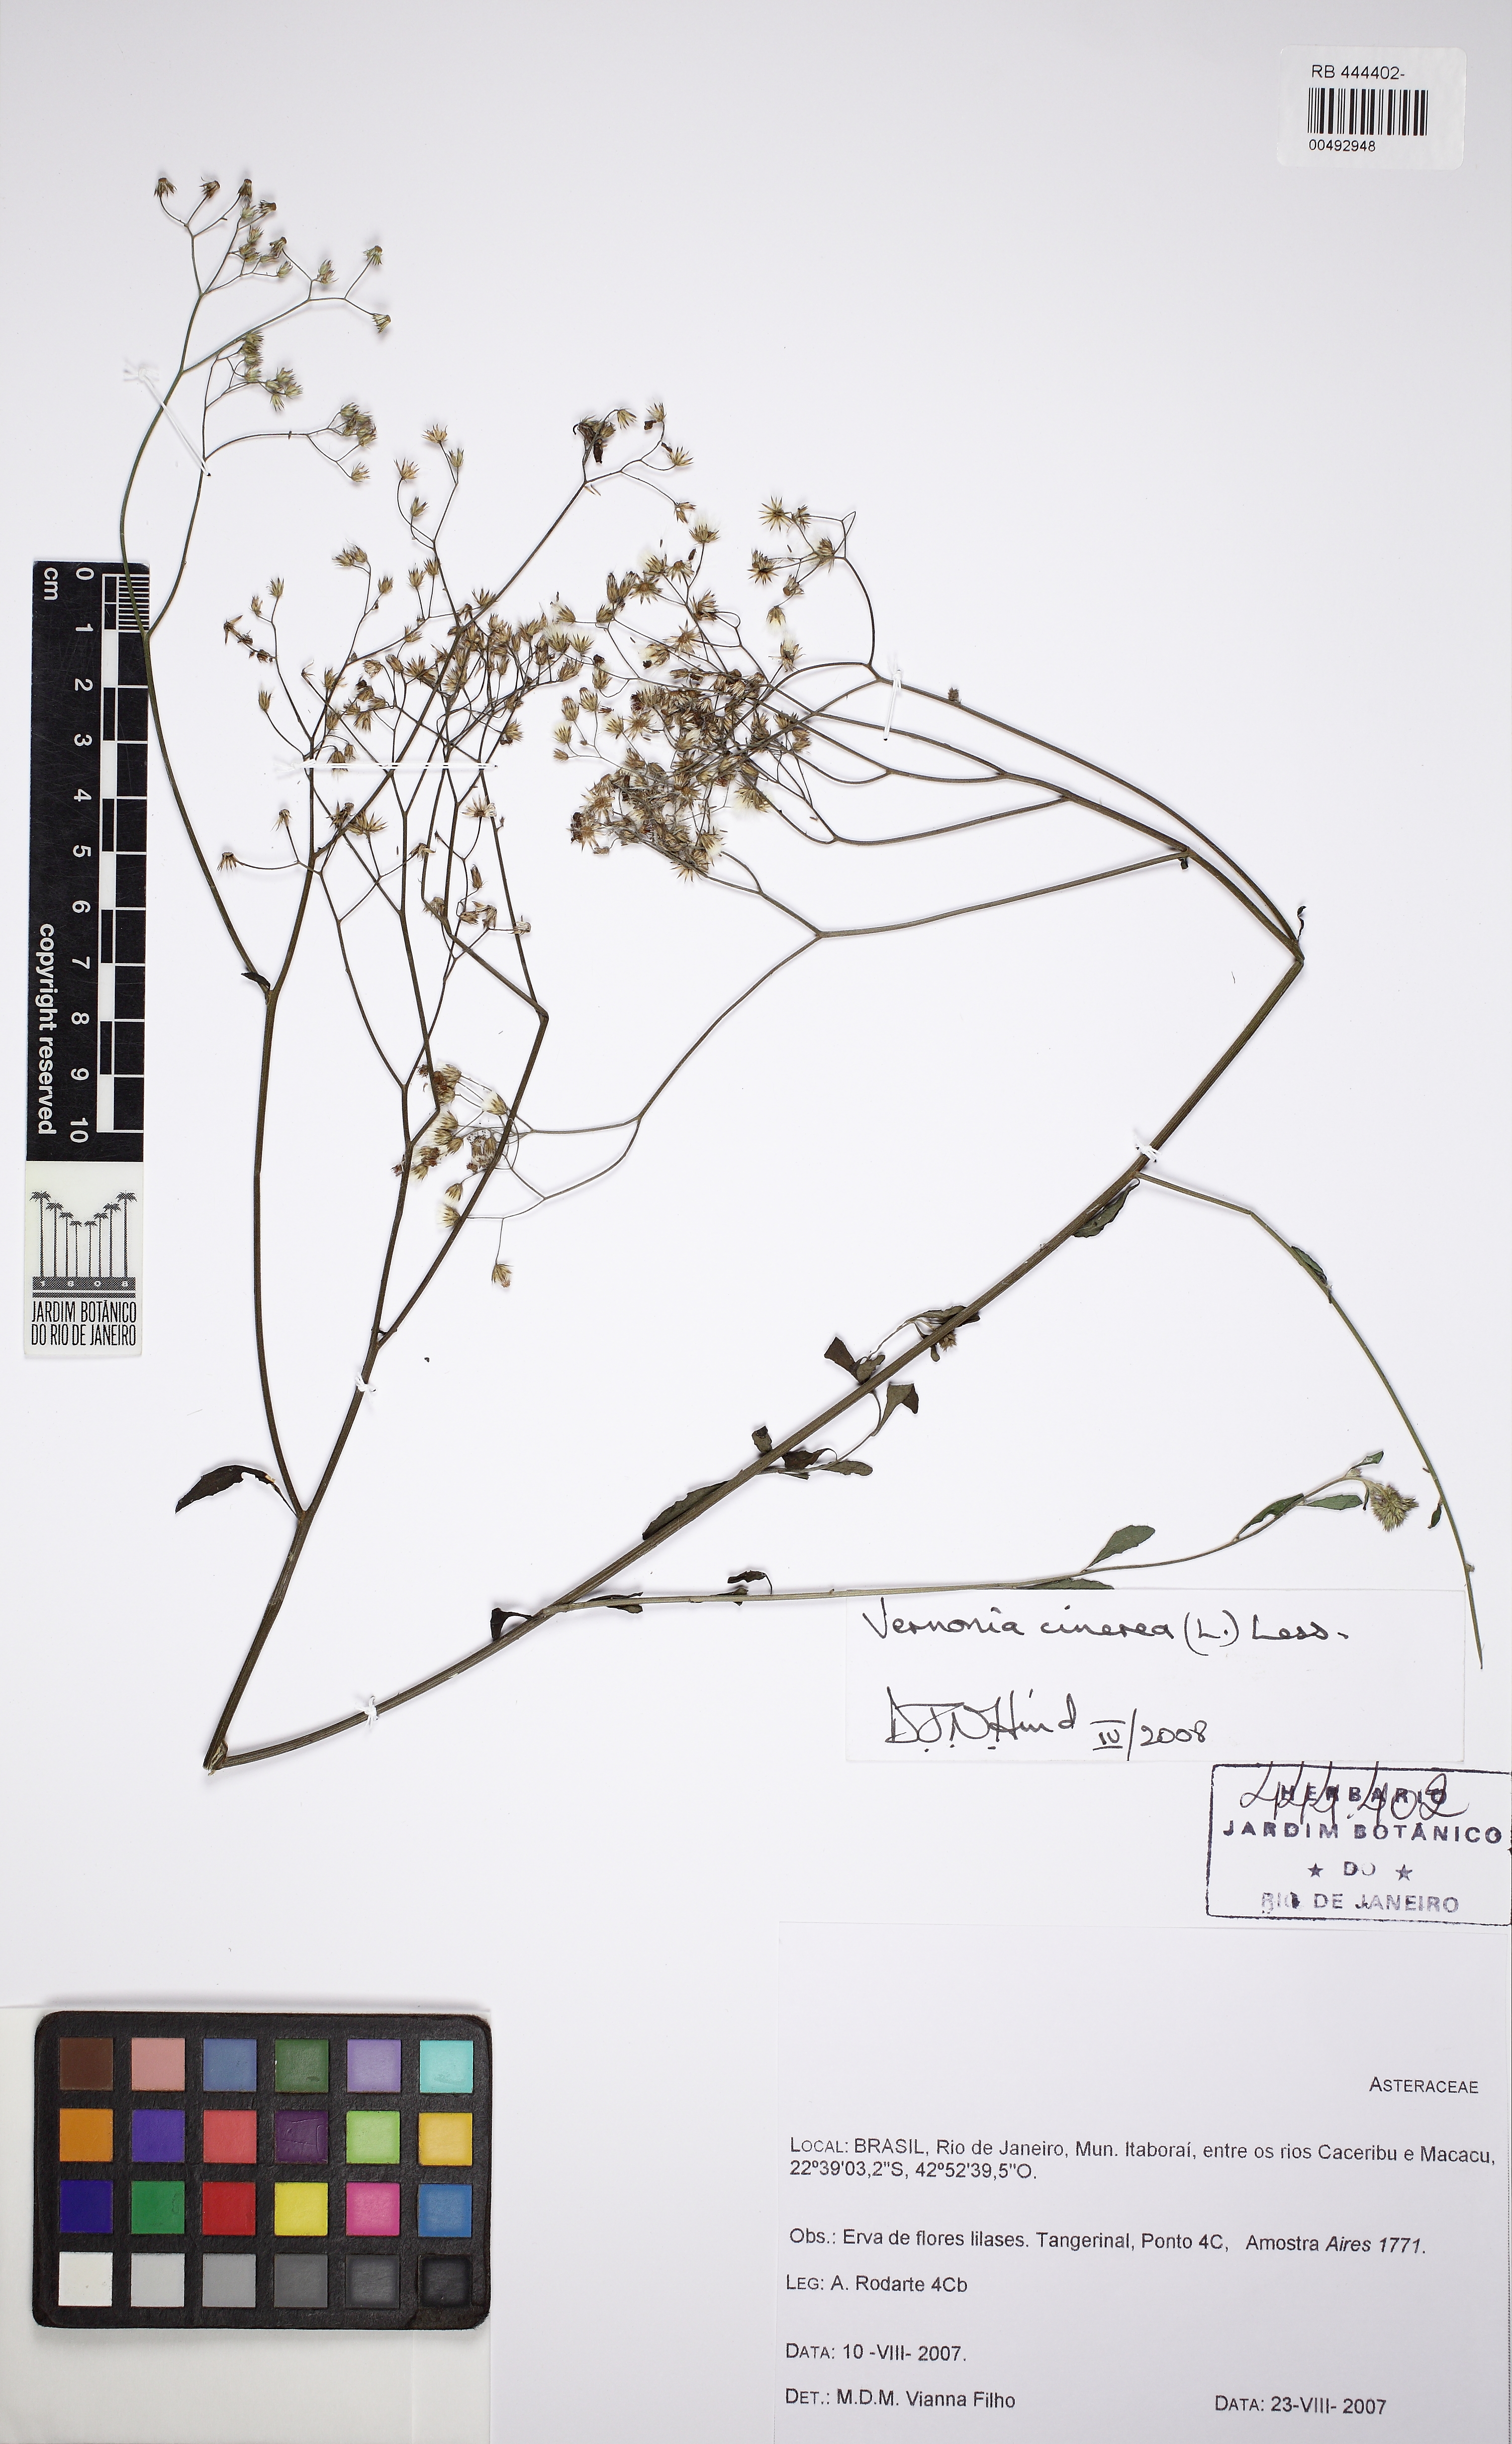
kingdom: Plantae
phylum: Tracheophyta
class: Magnoliopsida
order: Asterales
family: Asteraceae
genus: Cyanthillium
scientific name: Cyanthillium cinereum
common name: Little ironweed
